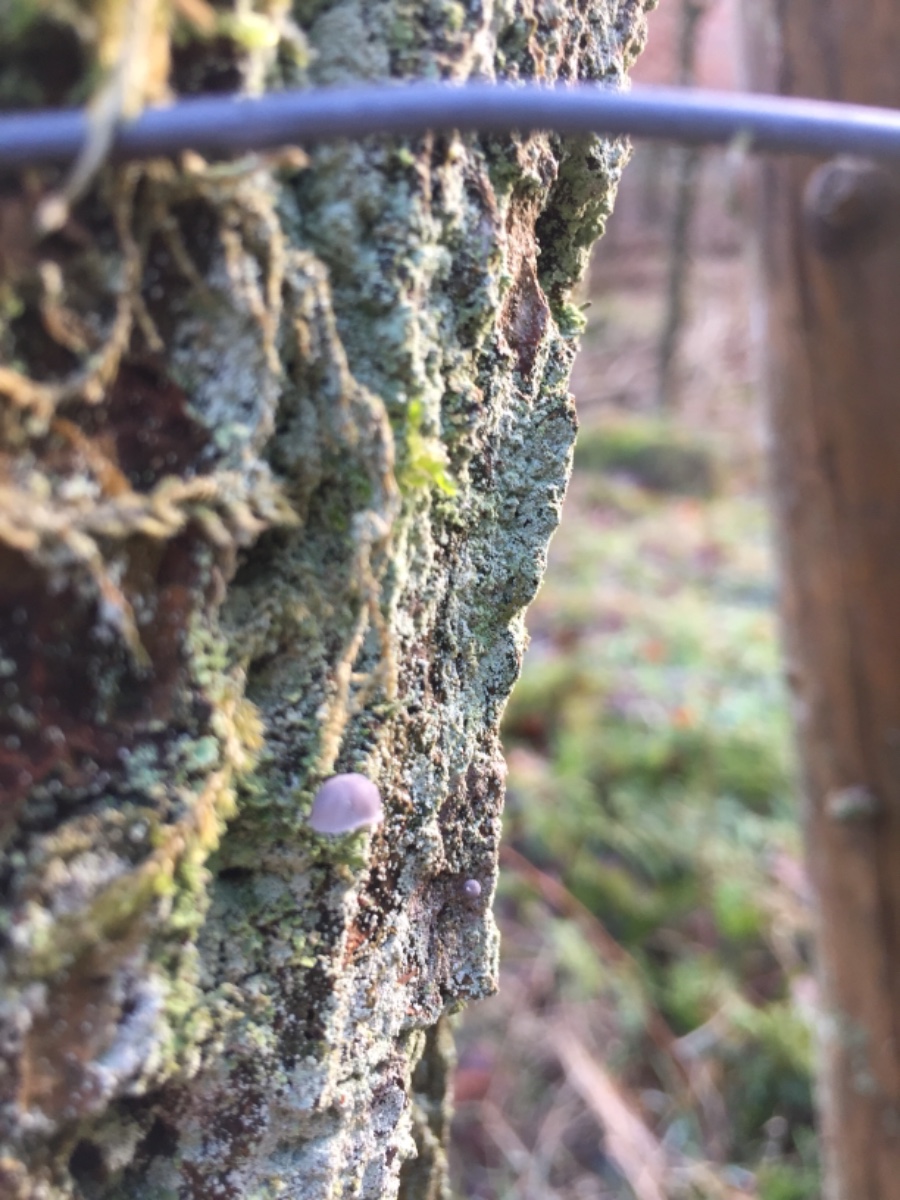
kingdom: Fungi
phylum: Basidiomycota
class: Agaricomycetes
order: Agaricales
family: Mycenaceae
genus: Mycena
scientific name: Mycena pseudocorticola
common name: gråblå bark-huesvamp
